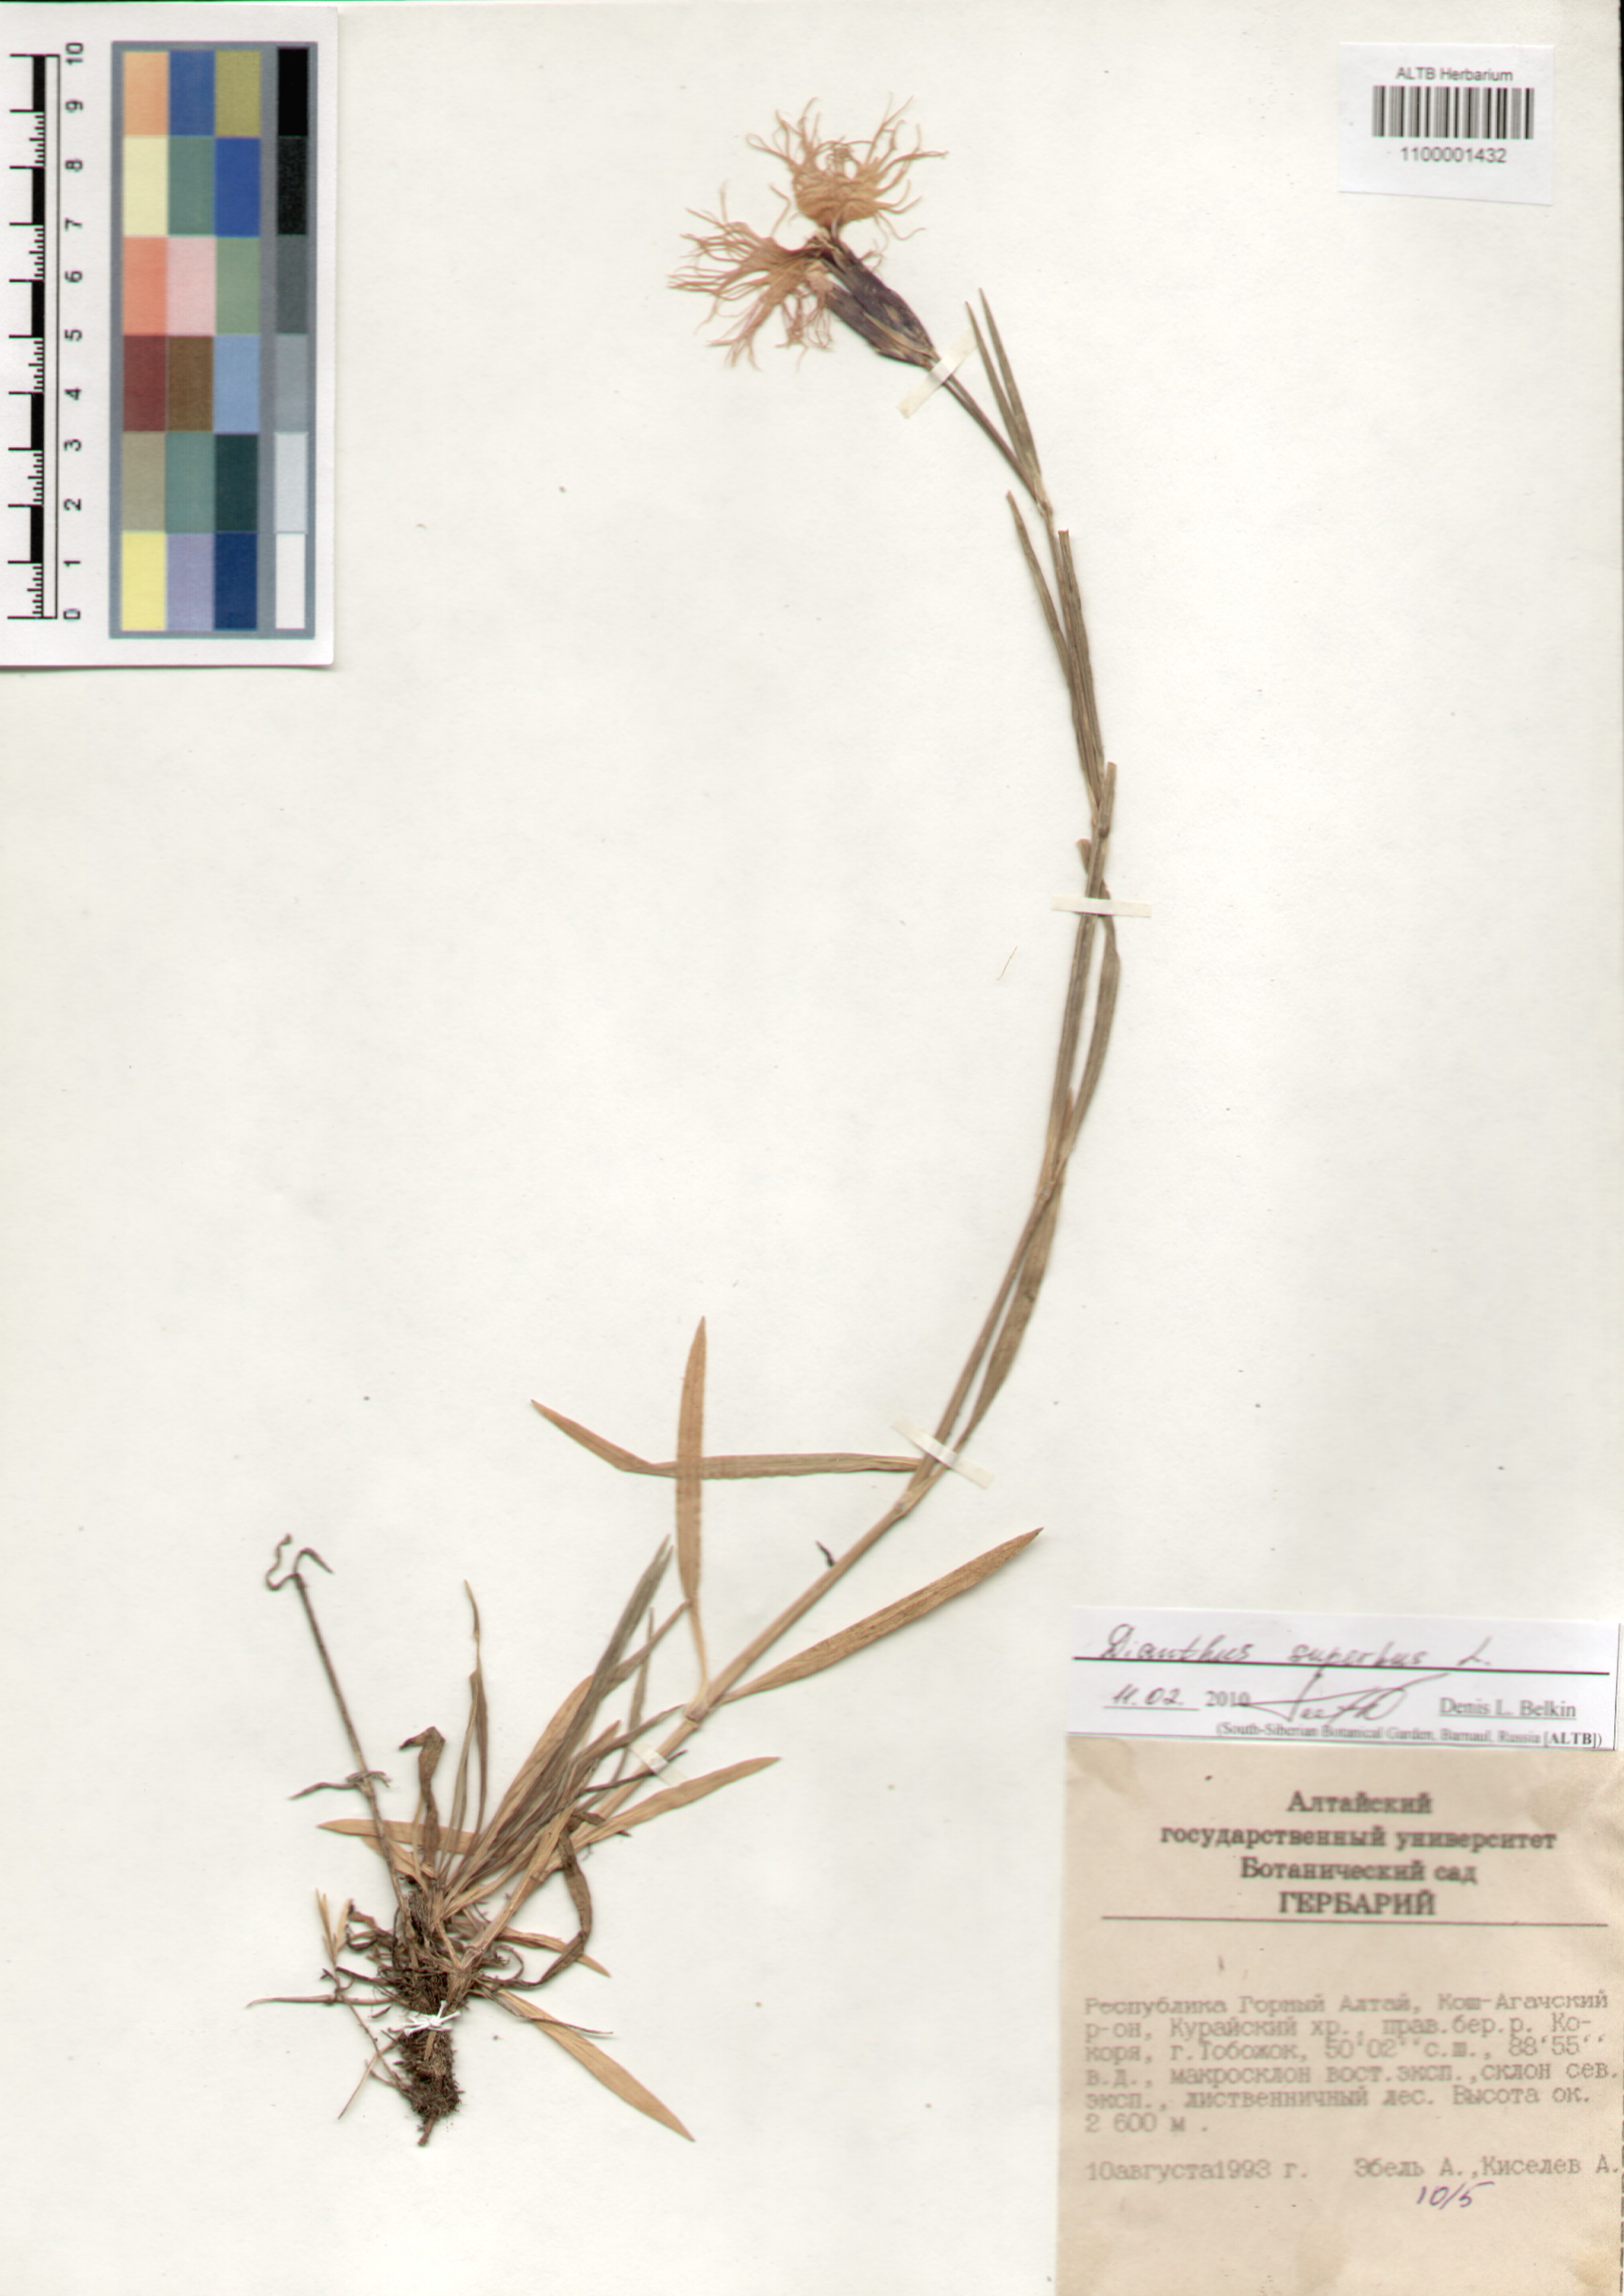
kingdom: Plantae
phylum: Tracheophyta
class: Magnoliopsida
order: Caryophyllales
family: Caryophyllaceae
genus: Dianthus
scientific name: Dianthus superbus
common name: Fringed pink
